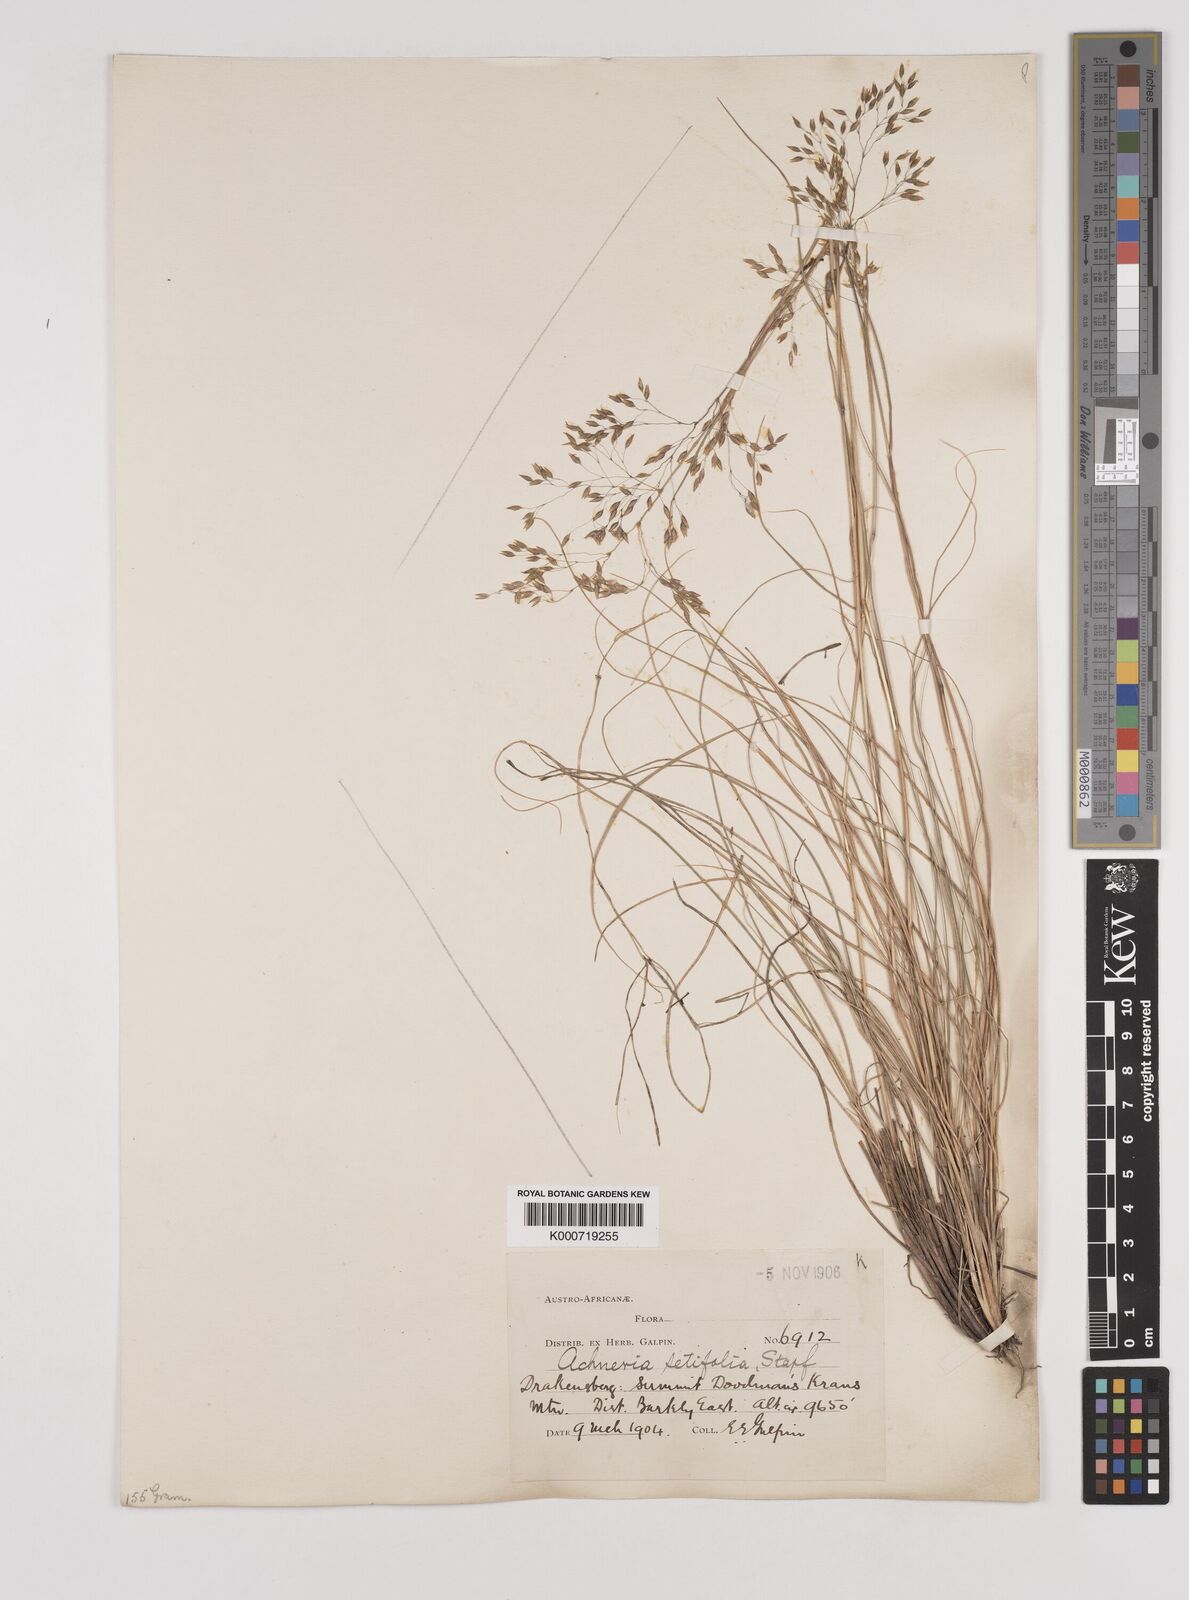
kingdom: Plantae
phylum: Tracheophyta
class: Liliopsida
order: Poales
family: Poaceae
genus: Pentameris
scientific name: Pentameris setifolia
